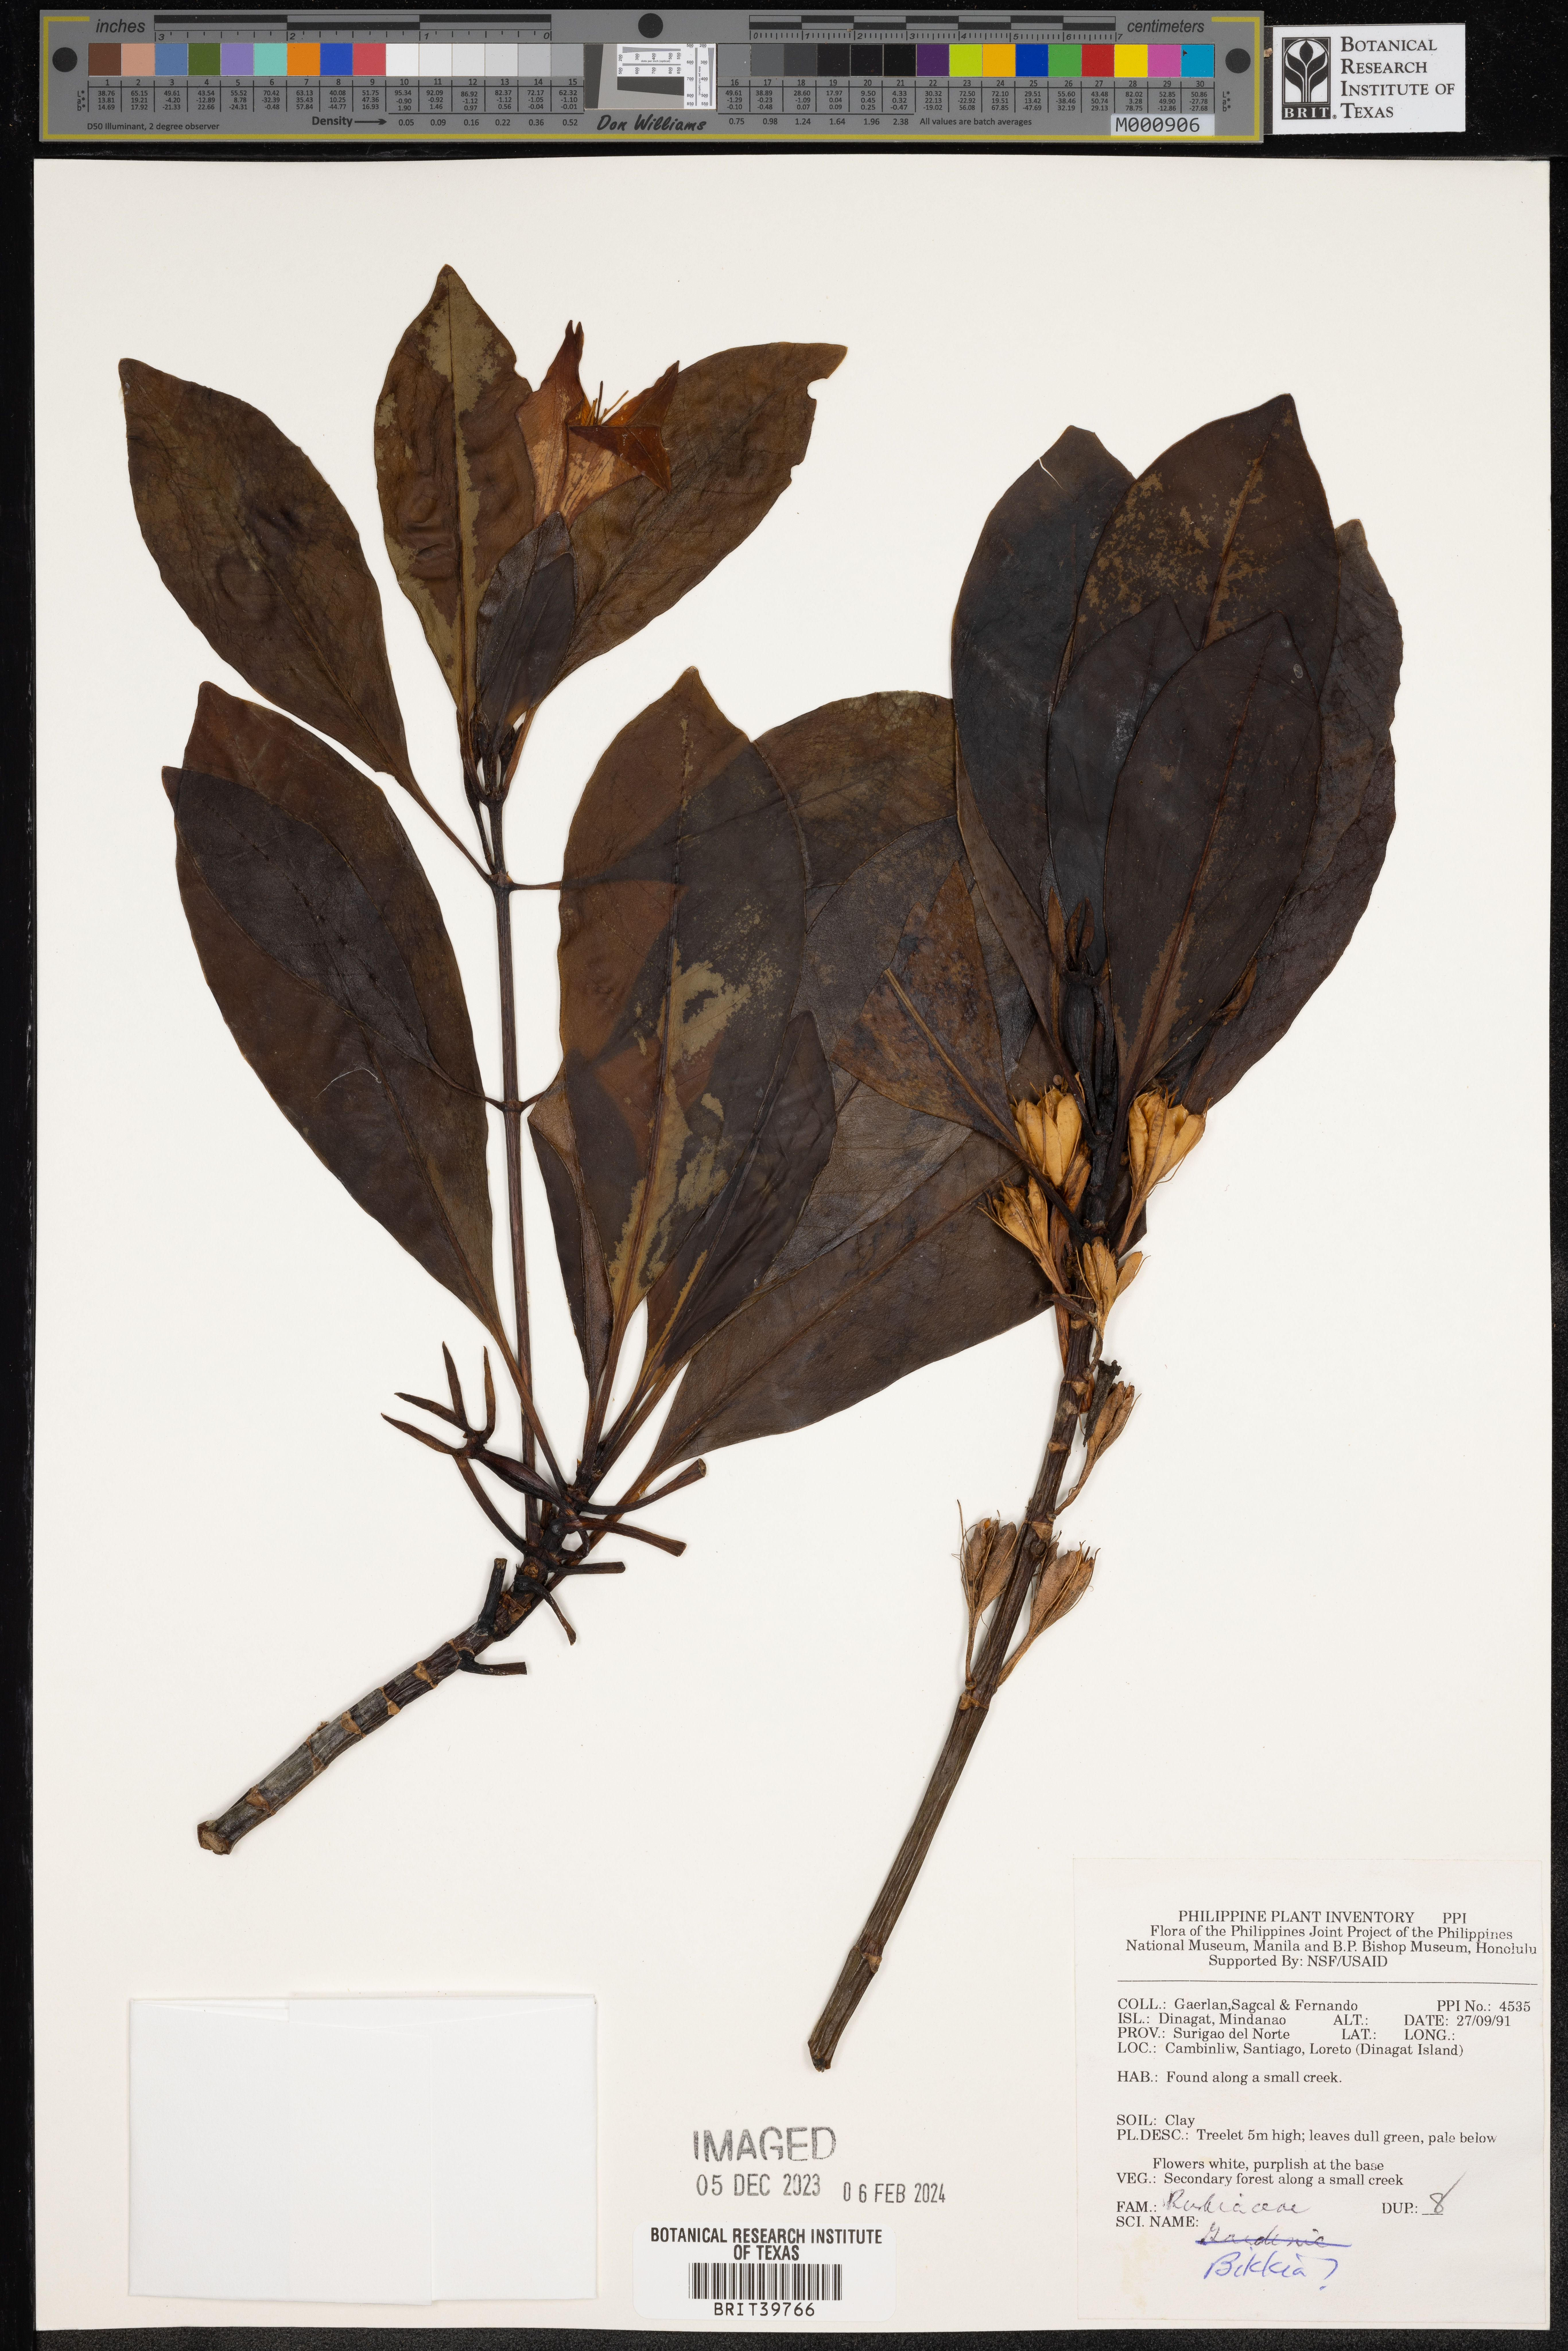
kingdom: Plantae
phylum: Tracheophyta
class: Magnoliopsida
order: Gentianales
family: Rubiaceae
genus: Bikkia
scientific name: Bikkia
